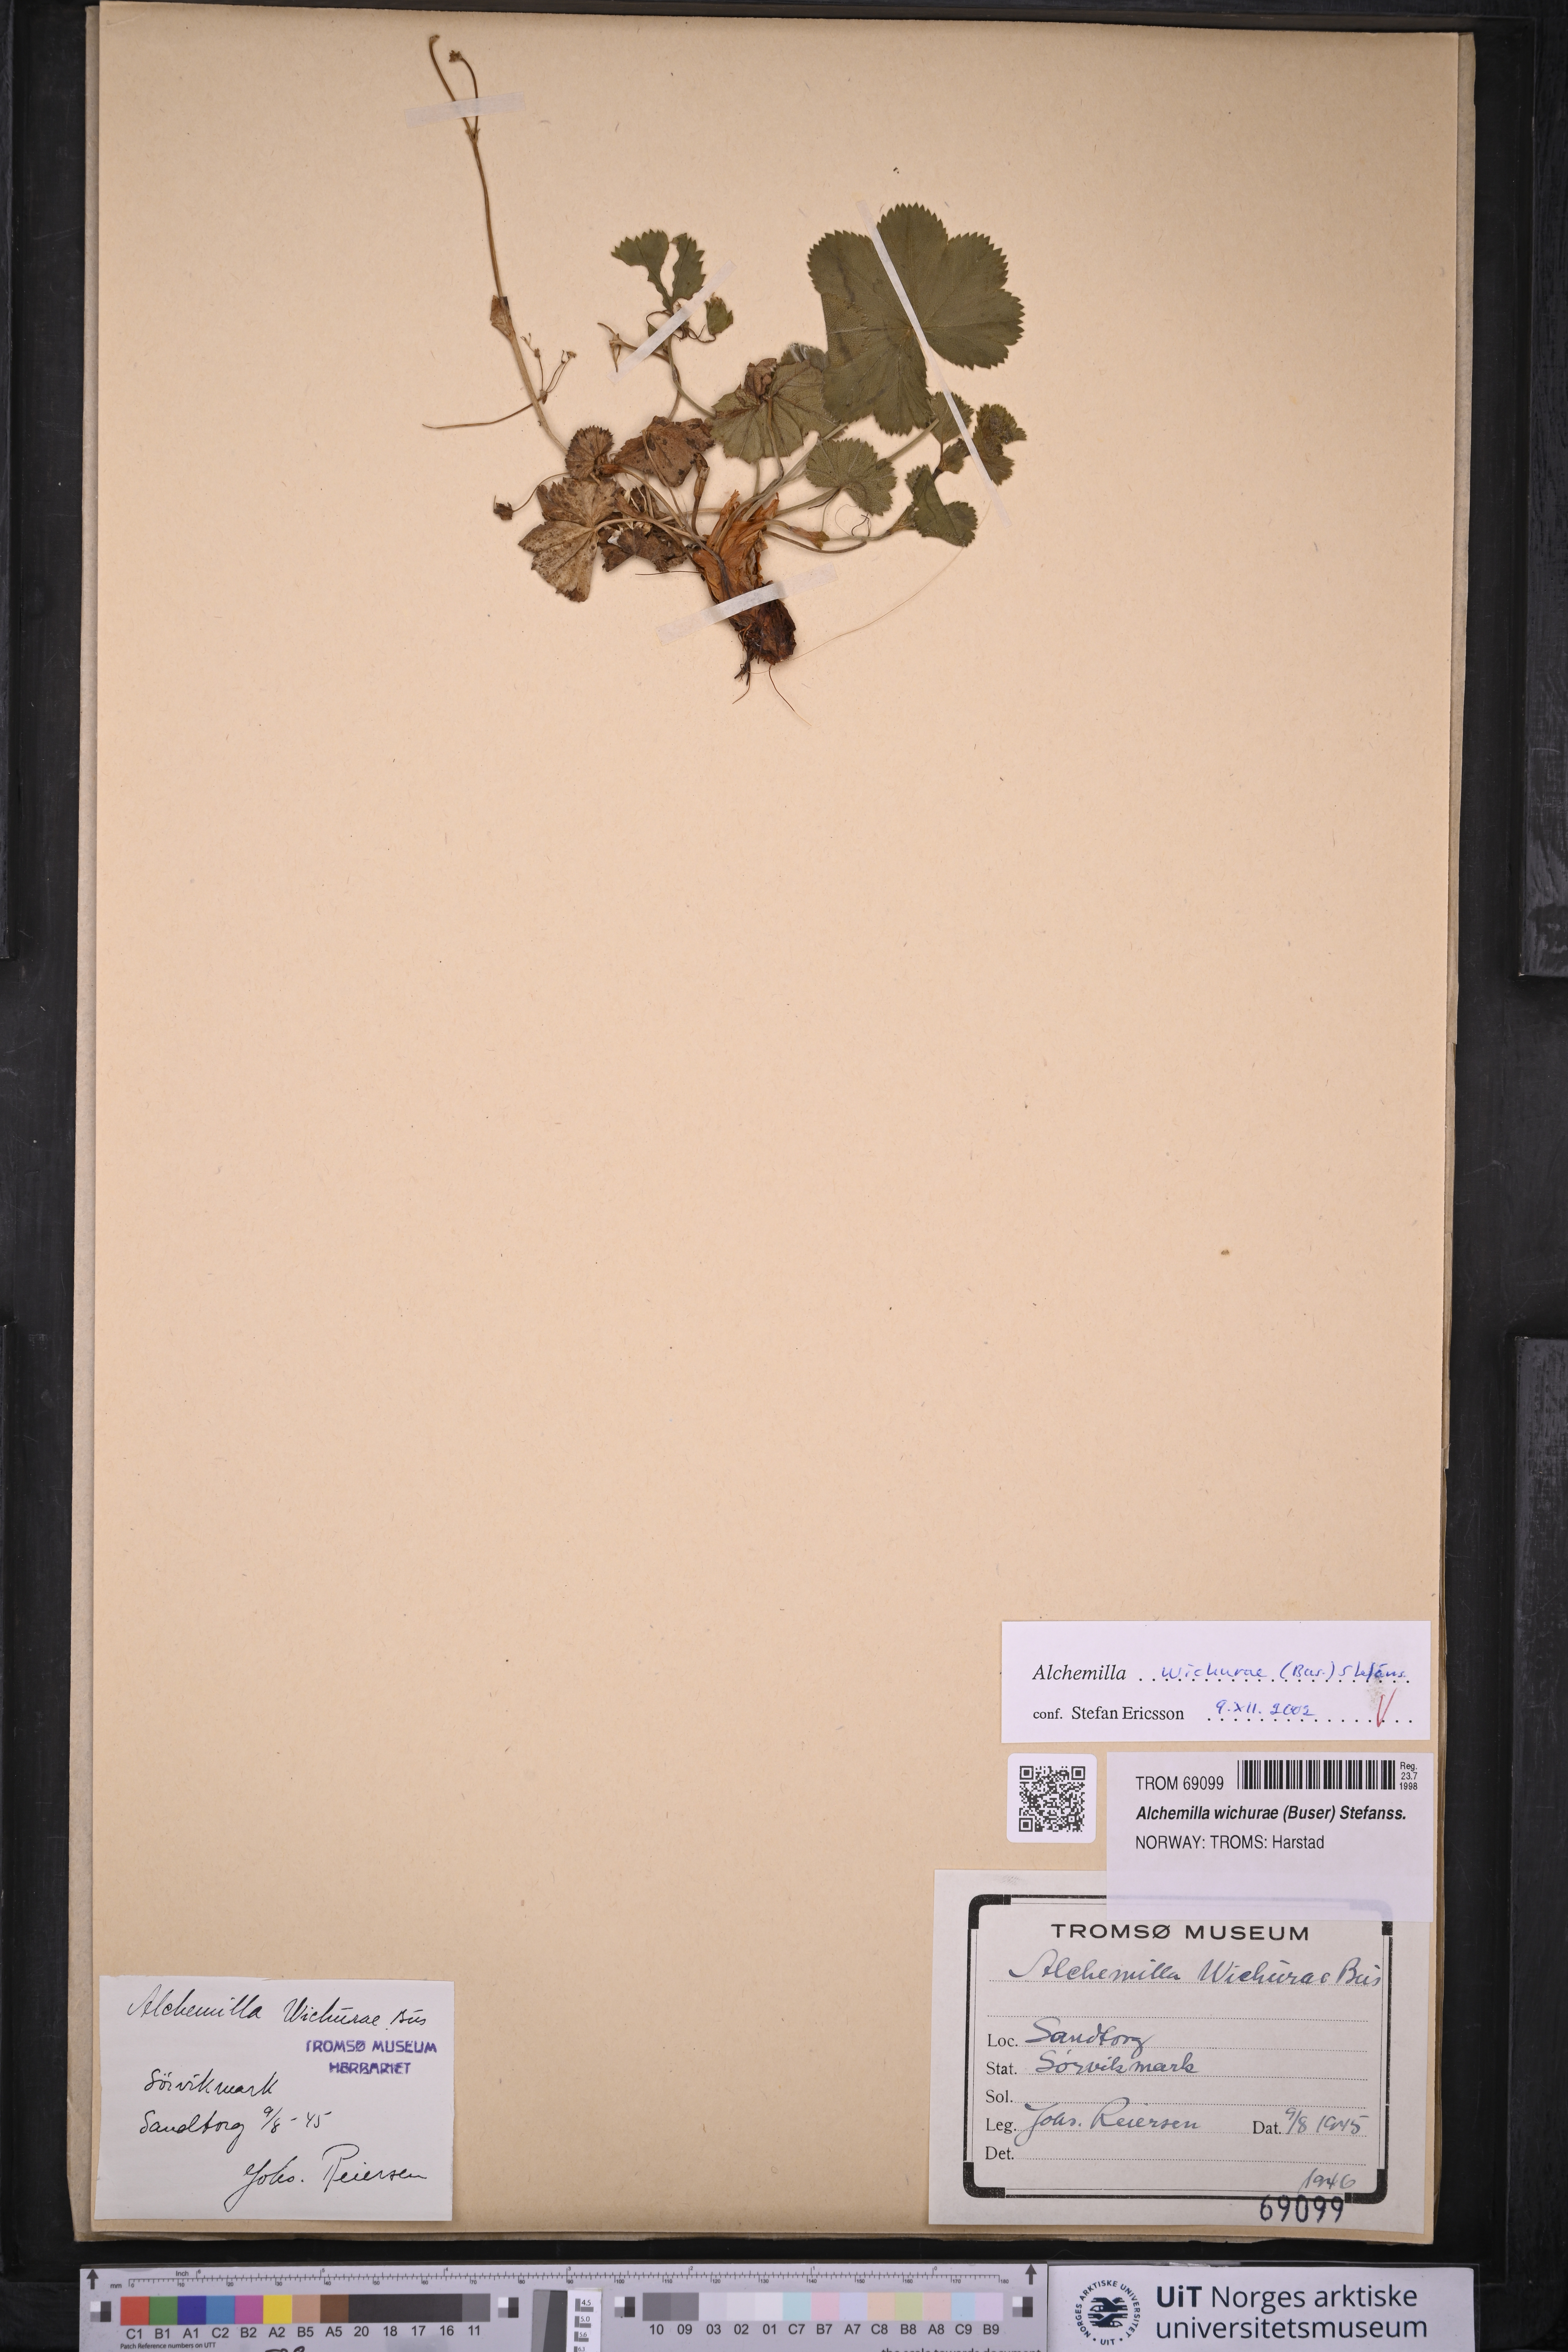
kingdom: Plantae
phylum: Tracheophyta
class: Magnoliopsida
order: Rosales
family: Rosaceae
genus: Alchemilla
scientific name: Alchemilla wichurae
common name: Rock lady's mantle
